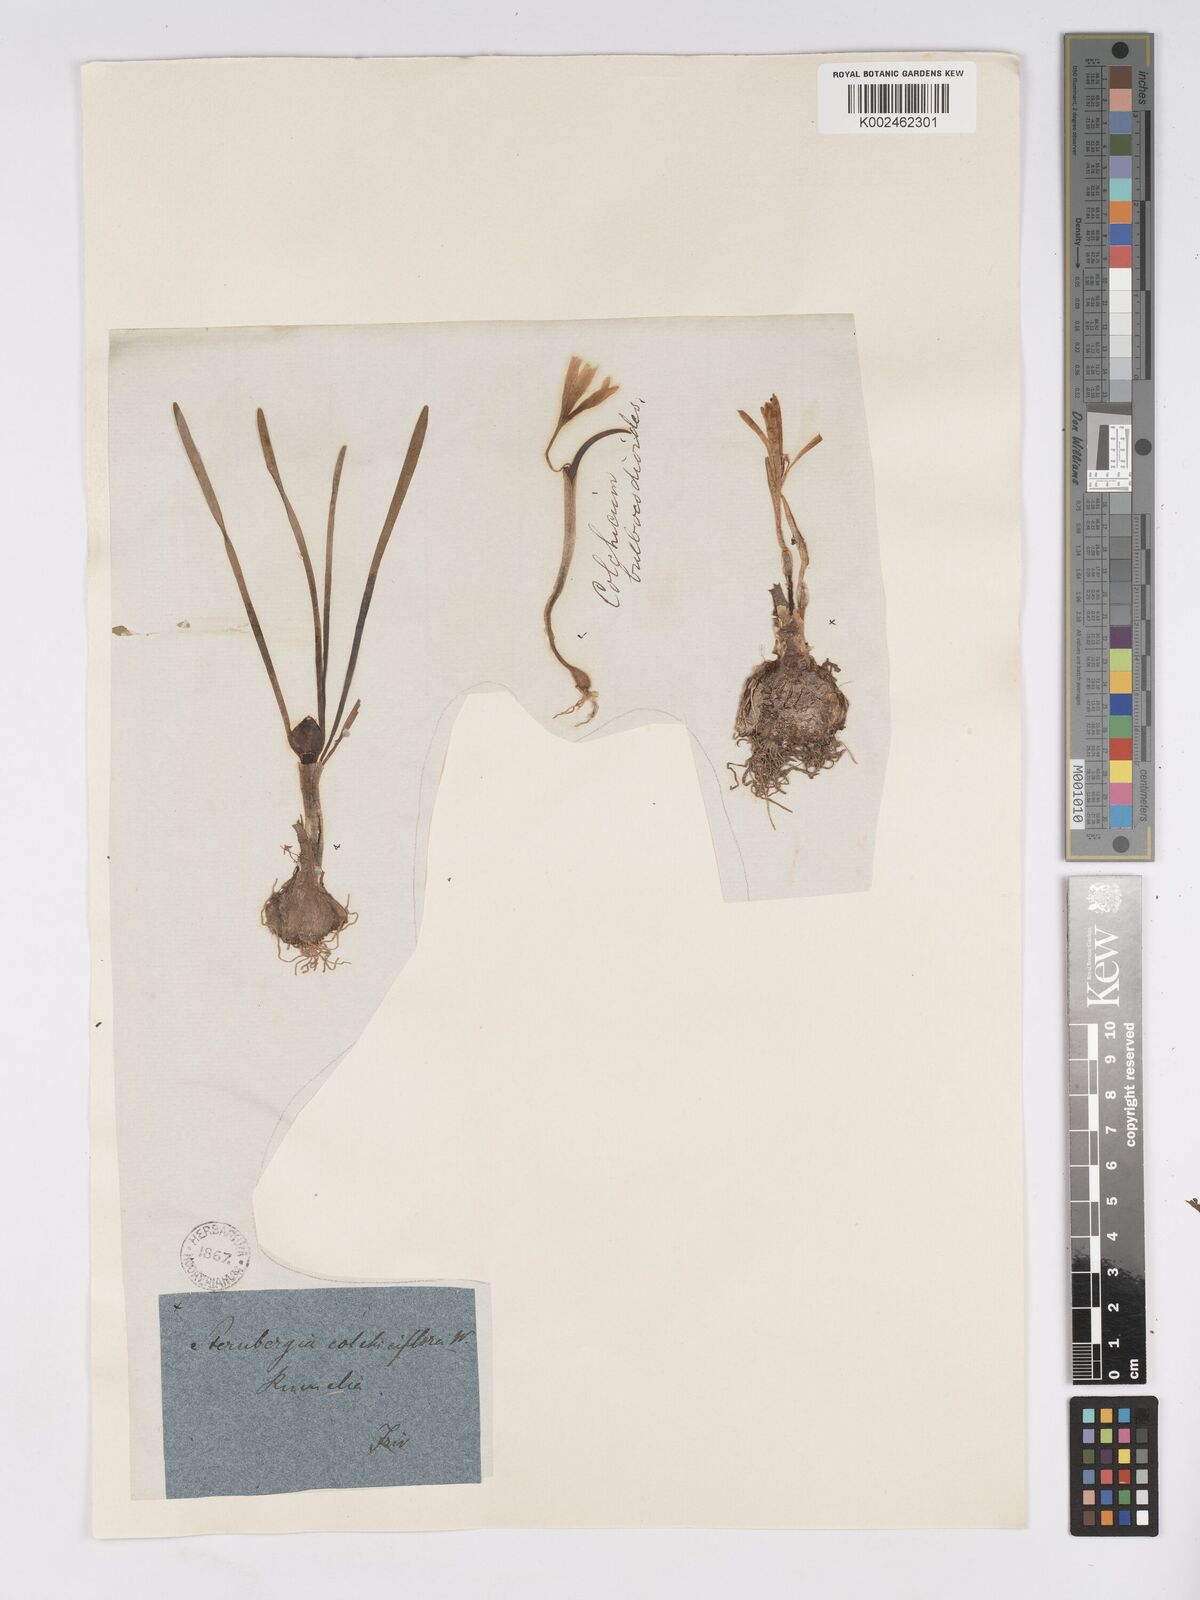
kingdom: Plantae
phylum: Tracheophyta
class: Liliopsida
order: Asparagales
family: Amaryllidaceae
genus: Sternbergia
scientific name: Sternbergia colchiciflora
